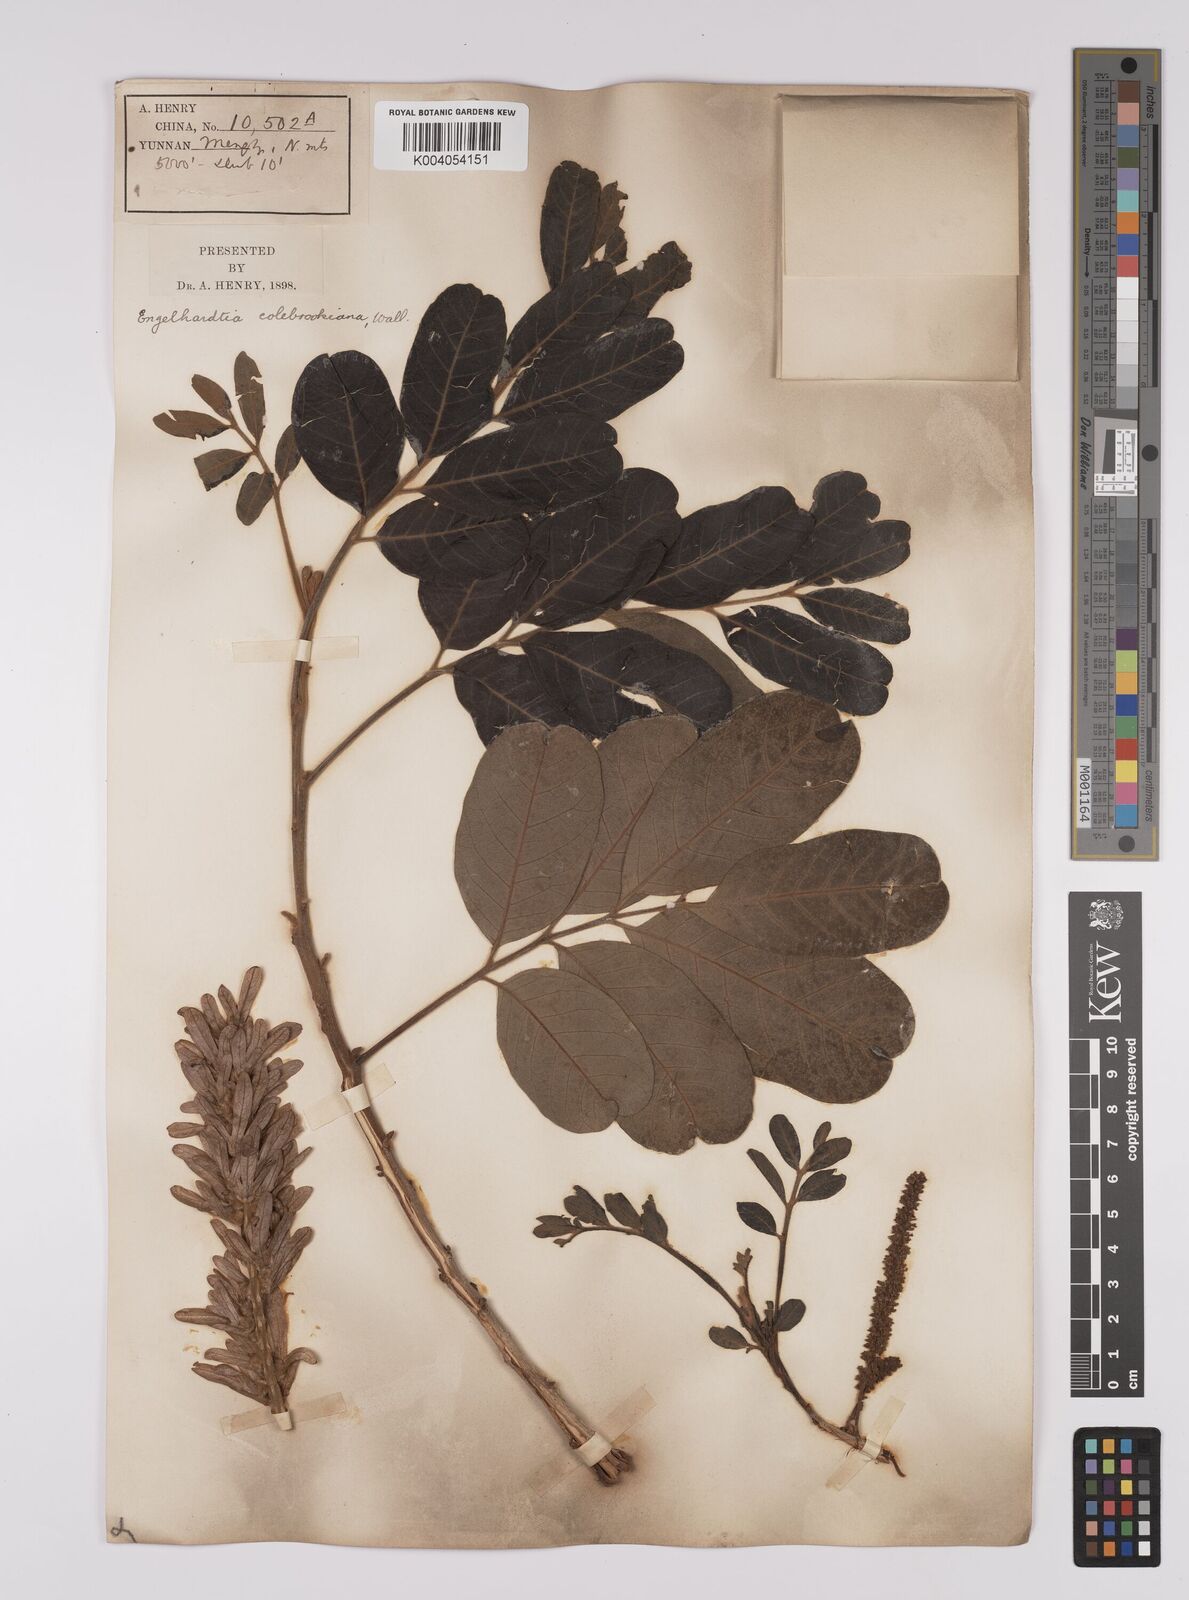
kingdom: Plantae
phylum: Tracheophyta
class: Magnoliopsida
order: Fagales
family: Juglandaceae
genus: Engelhardia
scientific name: Engelhardia spicata
